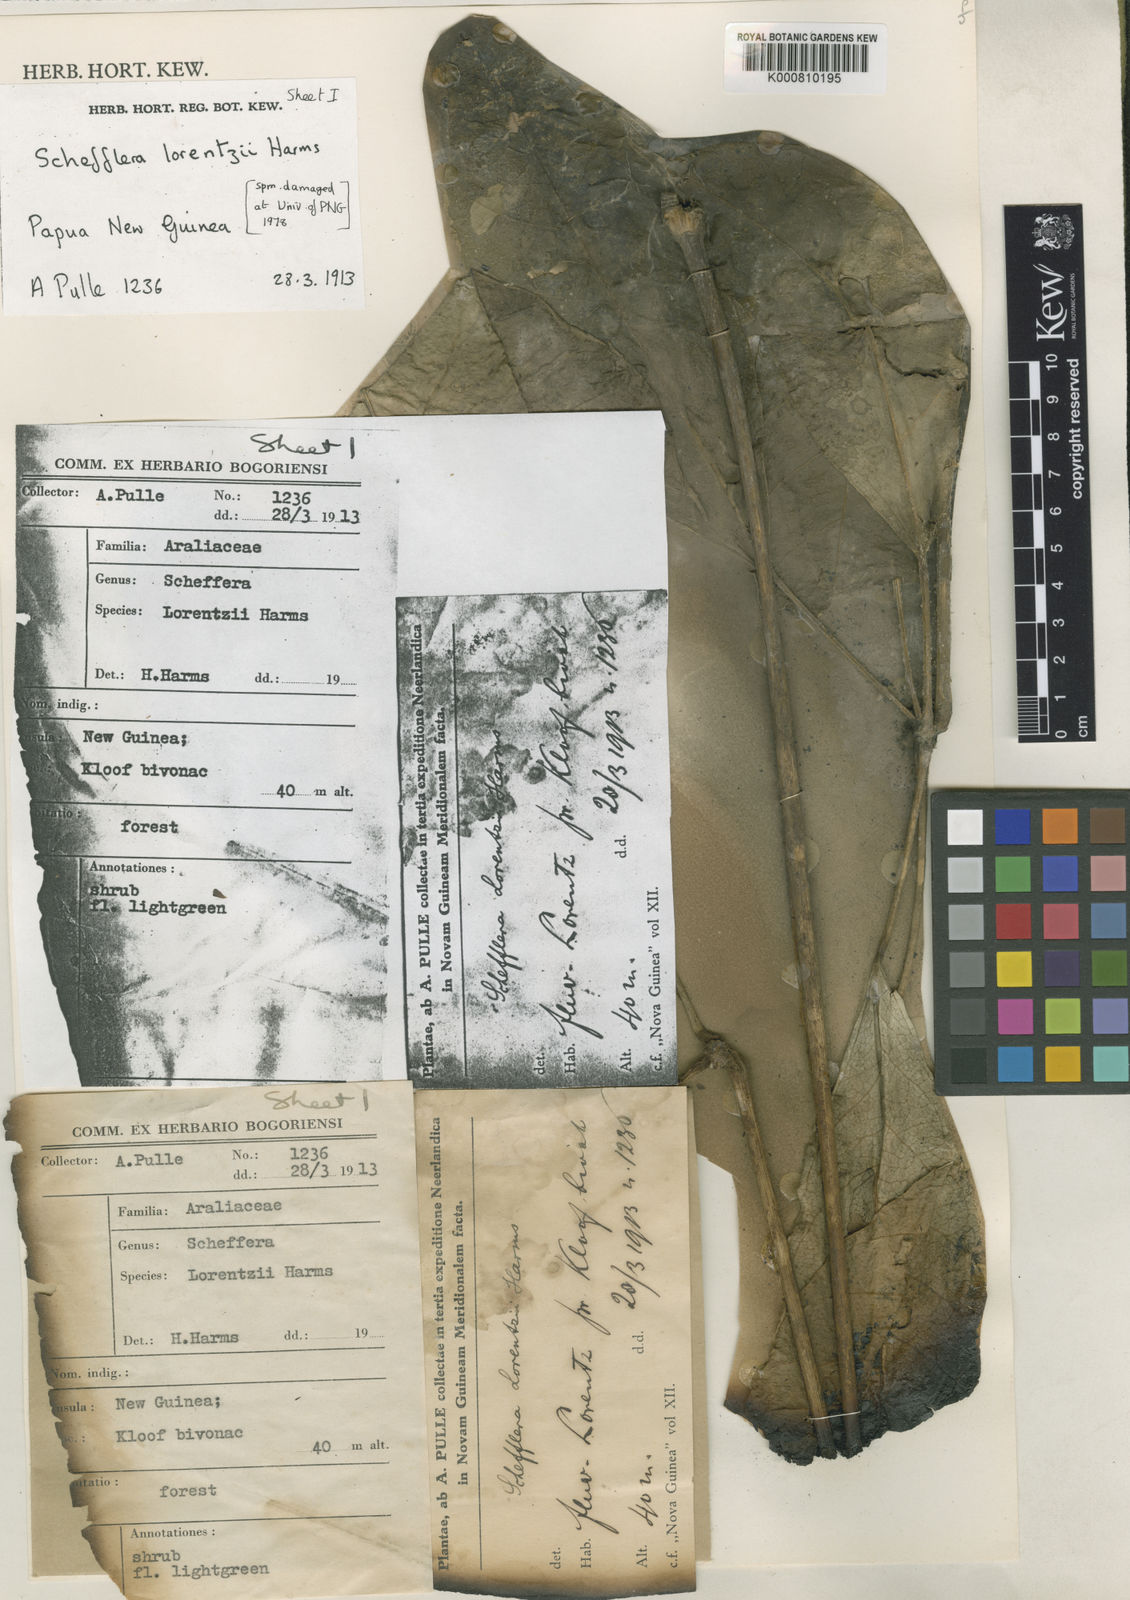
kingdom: Plantae
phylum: Tracheophyta
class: Magnoliopsida
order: Apiales
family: Araliaceae
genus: Heptapleurum
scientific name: Heptapleurum lorentzii
